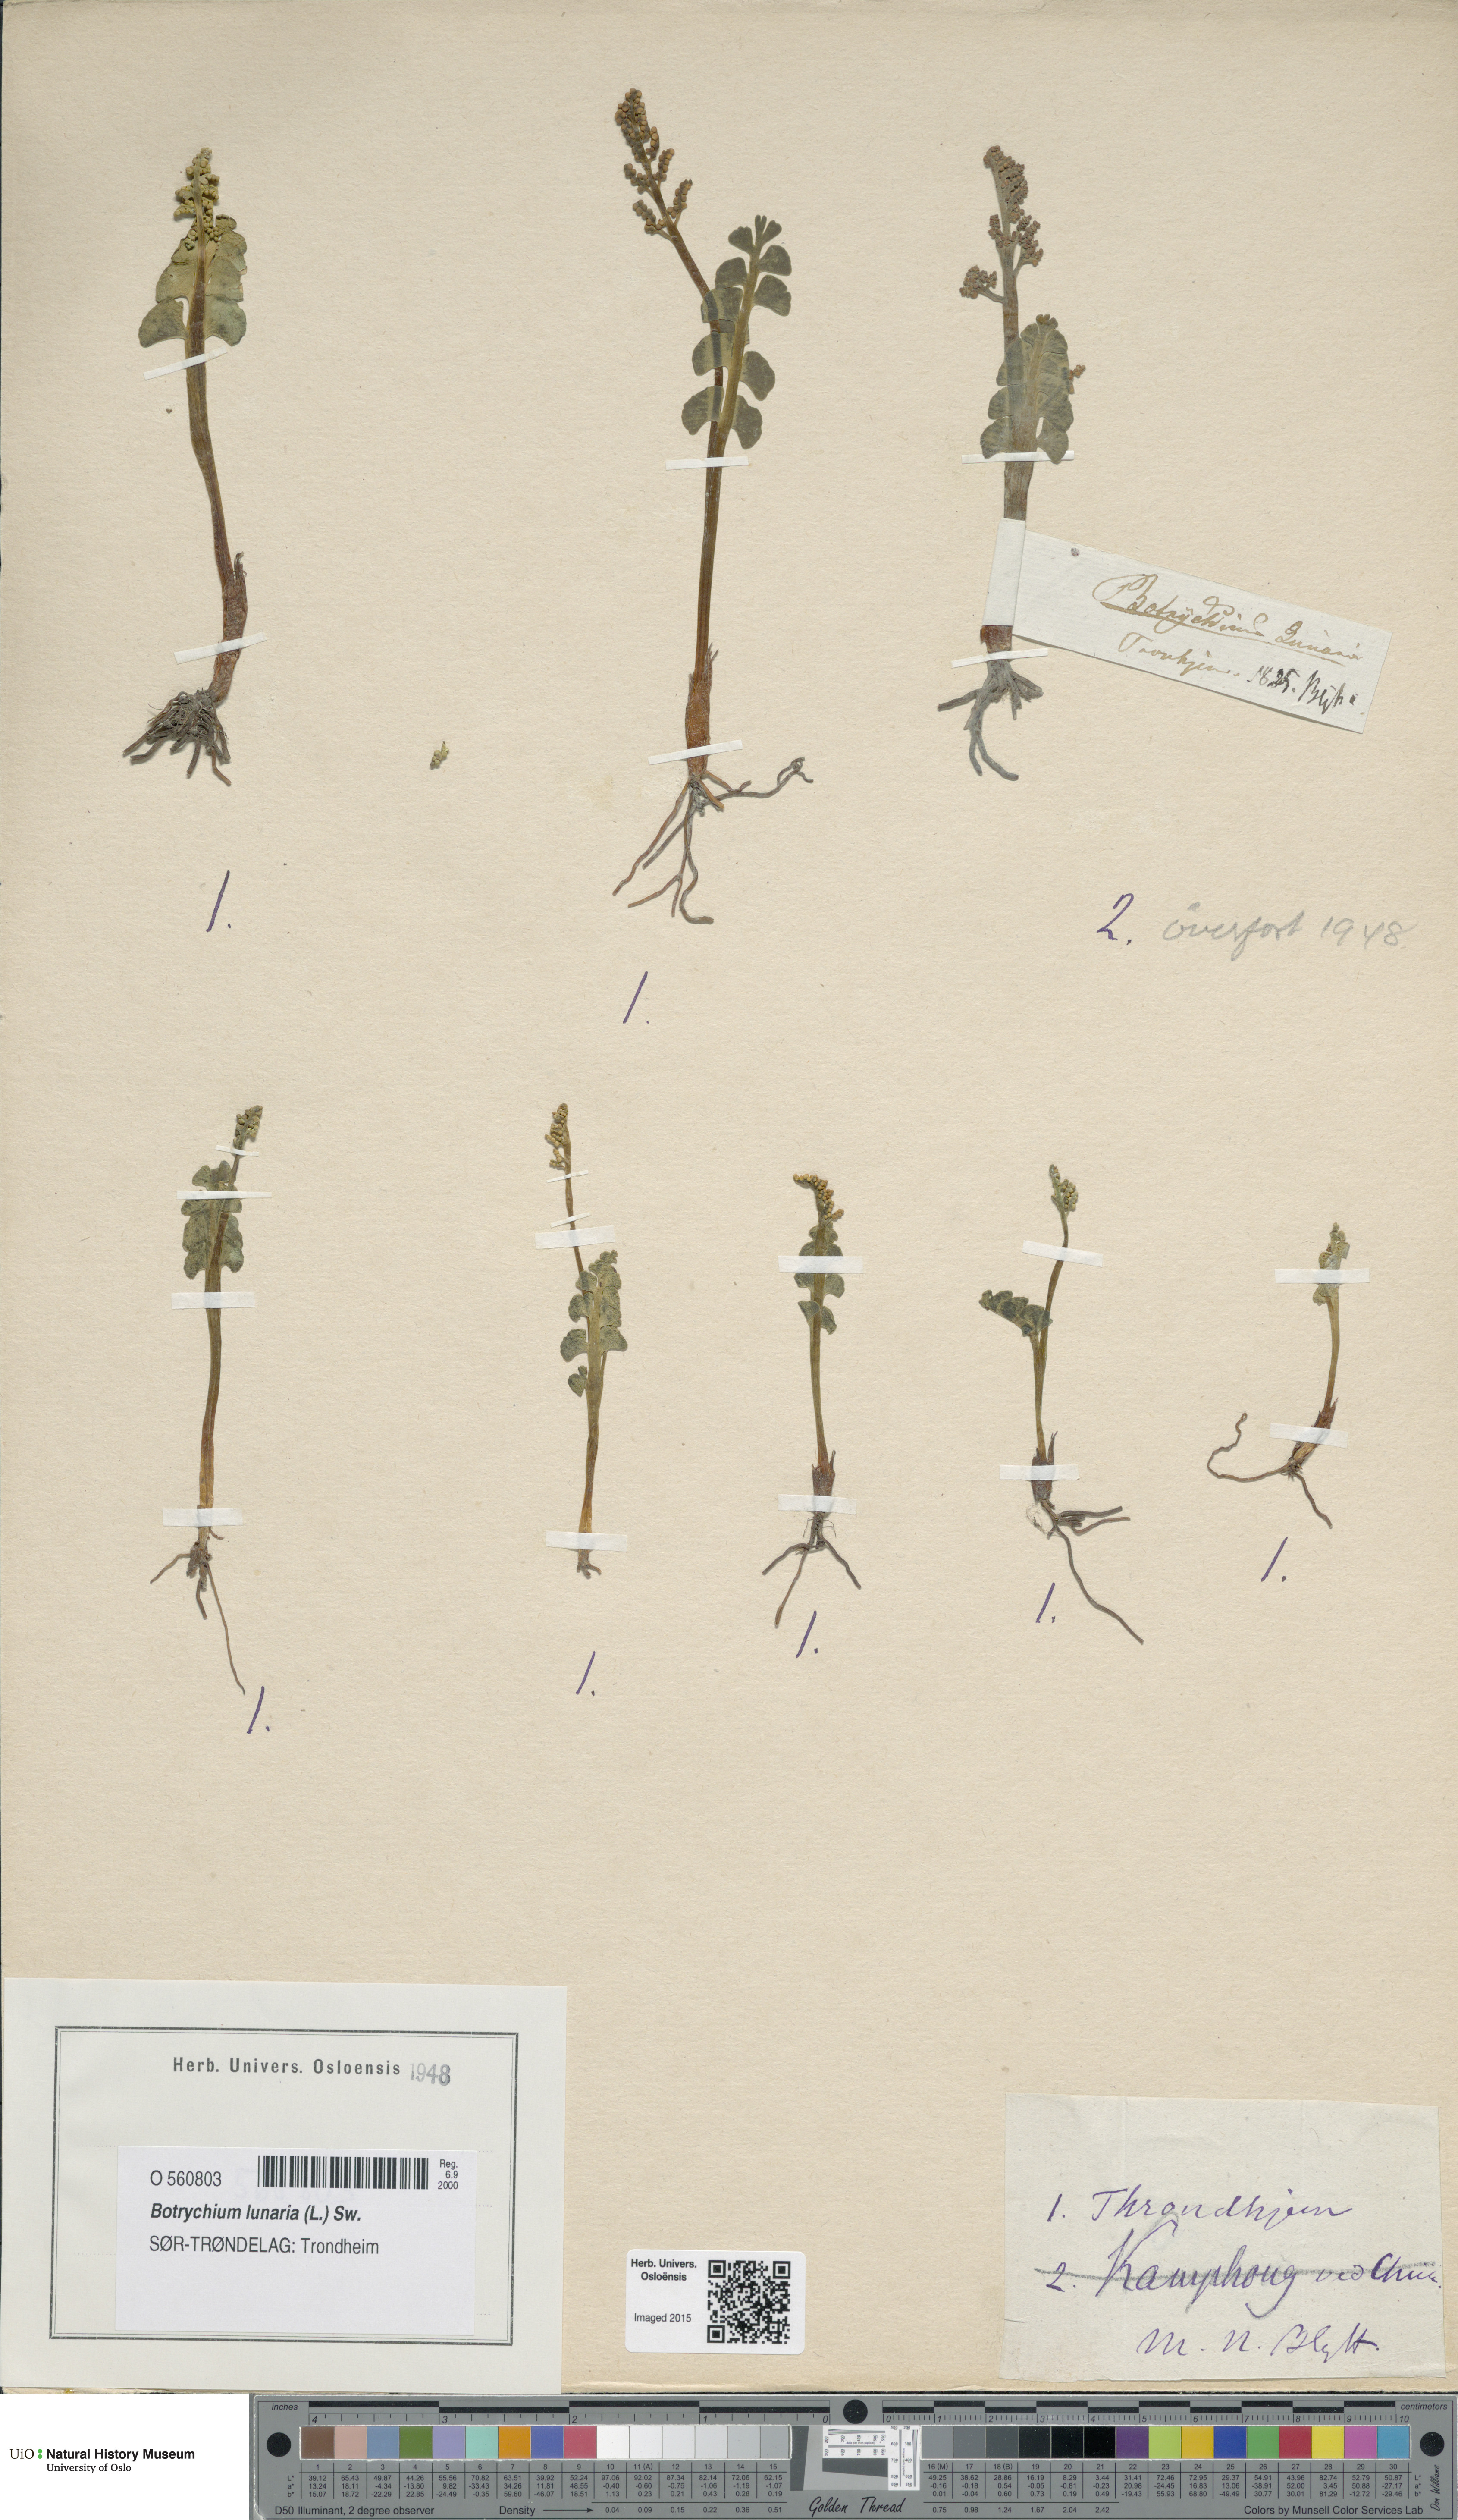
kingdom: Plantae
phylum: Tracheophyta
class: Polypodiopsida
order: Ophioglossales
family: Ophioglossaceae
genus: Botrychium
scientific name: Botrychium lunaria
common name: Moonwort
